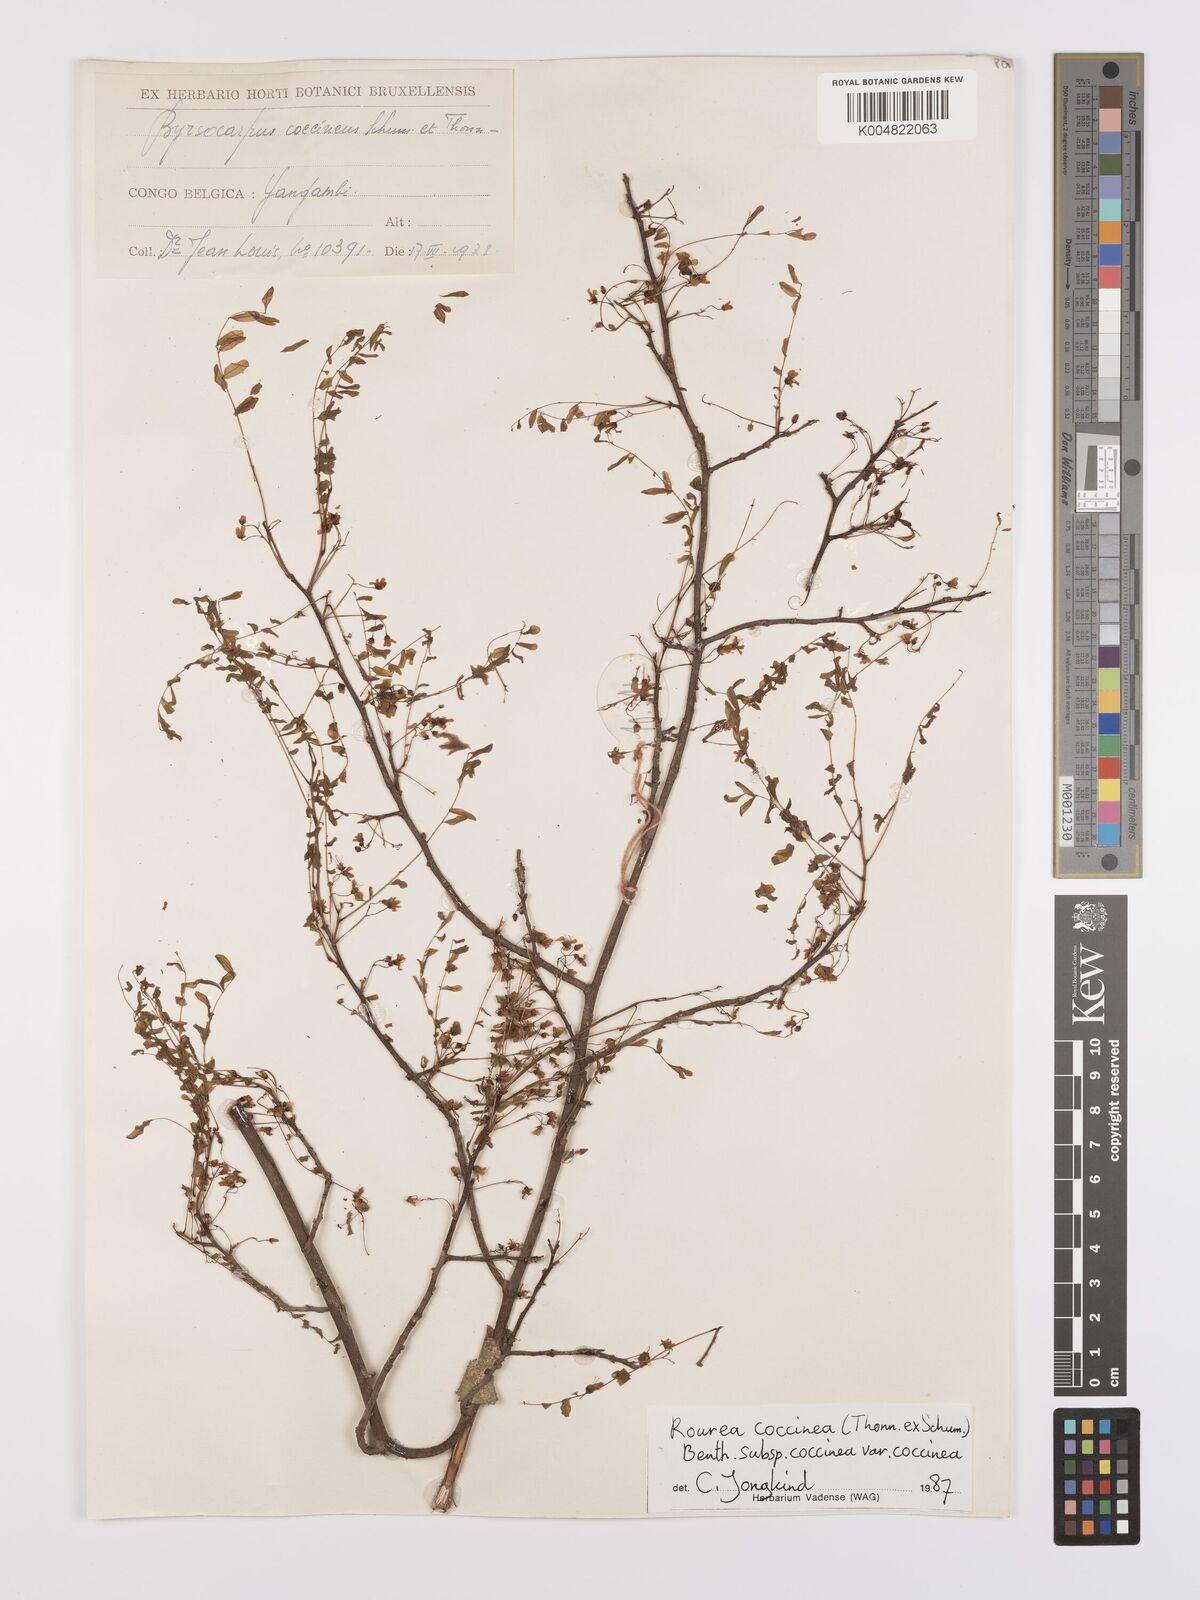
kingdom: Plantae
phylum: Tracheophyta
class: Magnoliopsida
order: Oxalidales
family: Connaraceae
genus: Rourea
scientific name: Rourea coccinea
